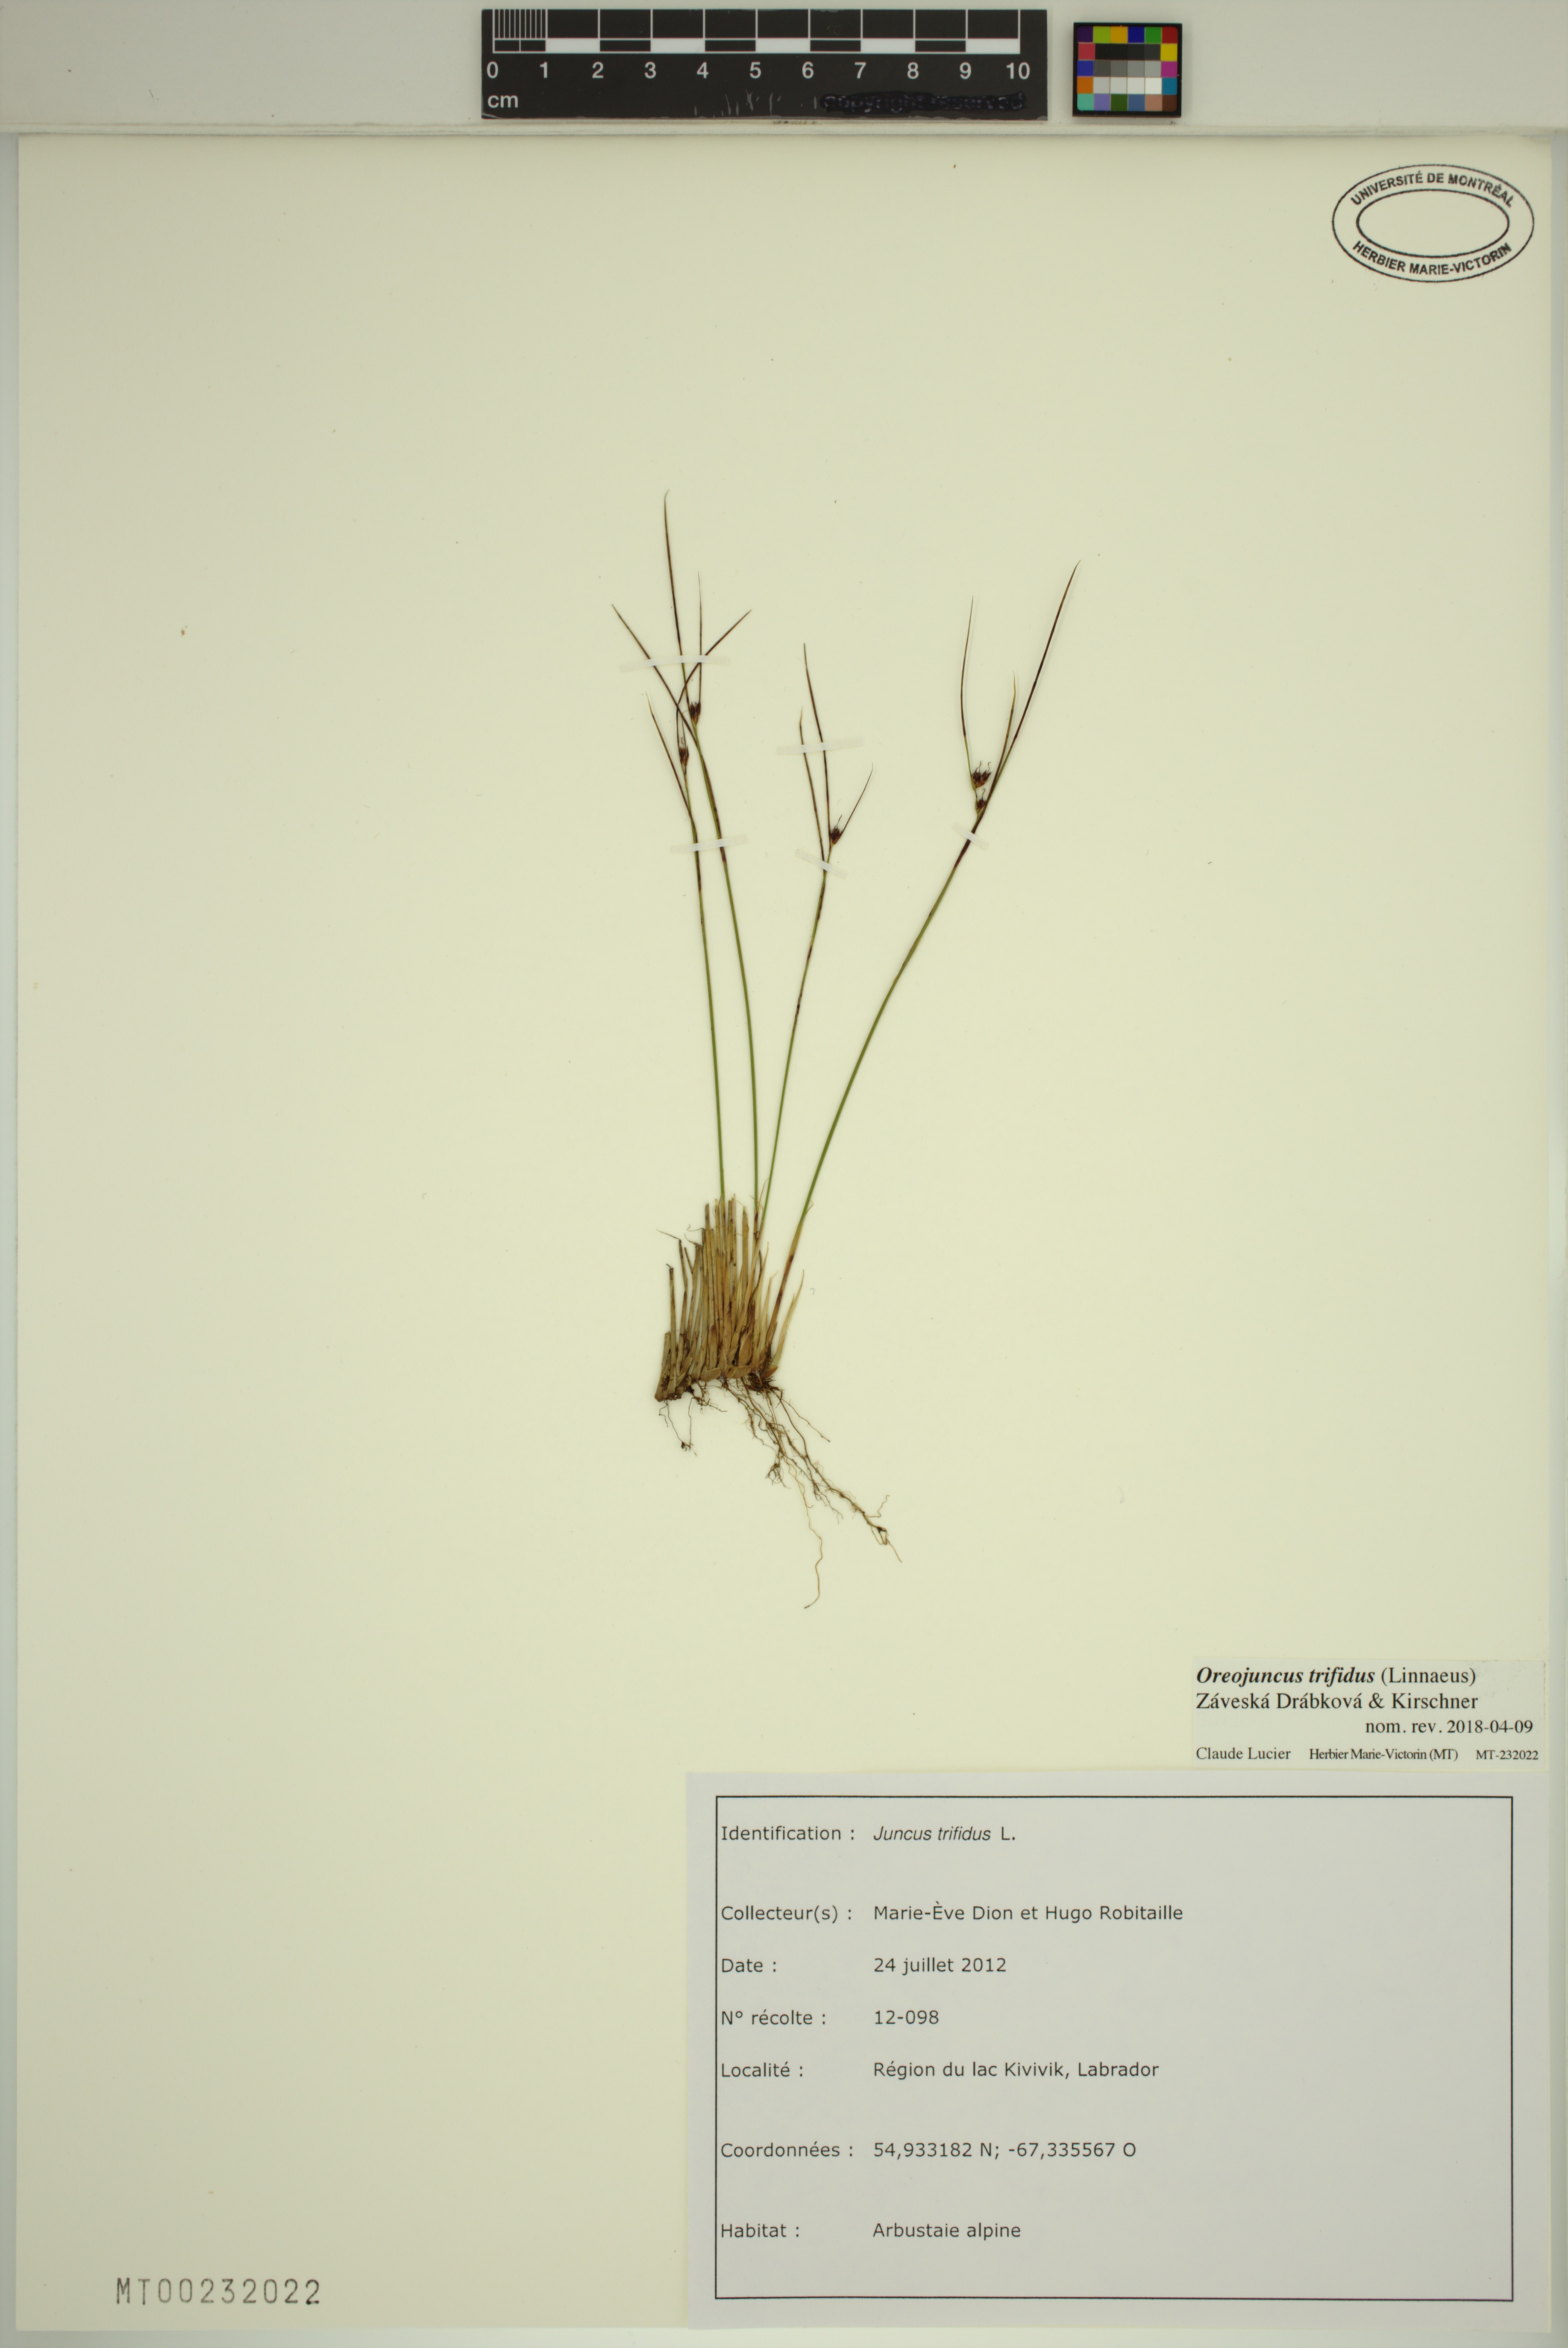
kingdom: Plantae
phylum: Tracheophyta
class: Liliopsida
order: Poales
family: Juncaceae
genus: Oreojuncus
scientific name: Oreojuncus trifidus
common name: Highland rush
